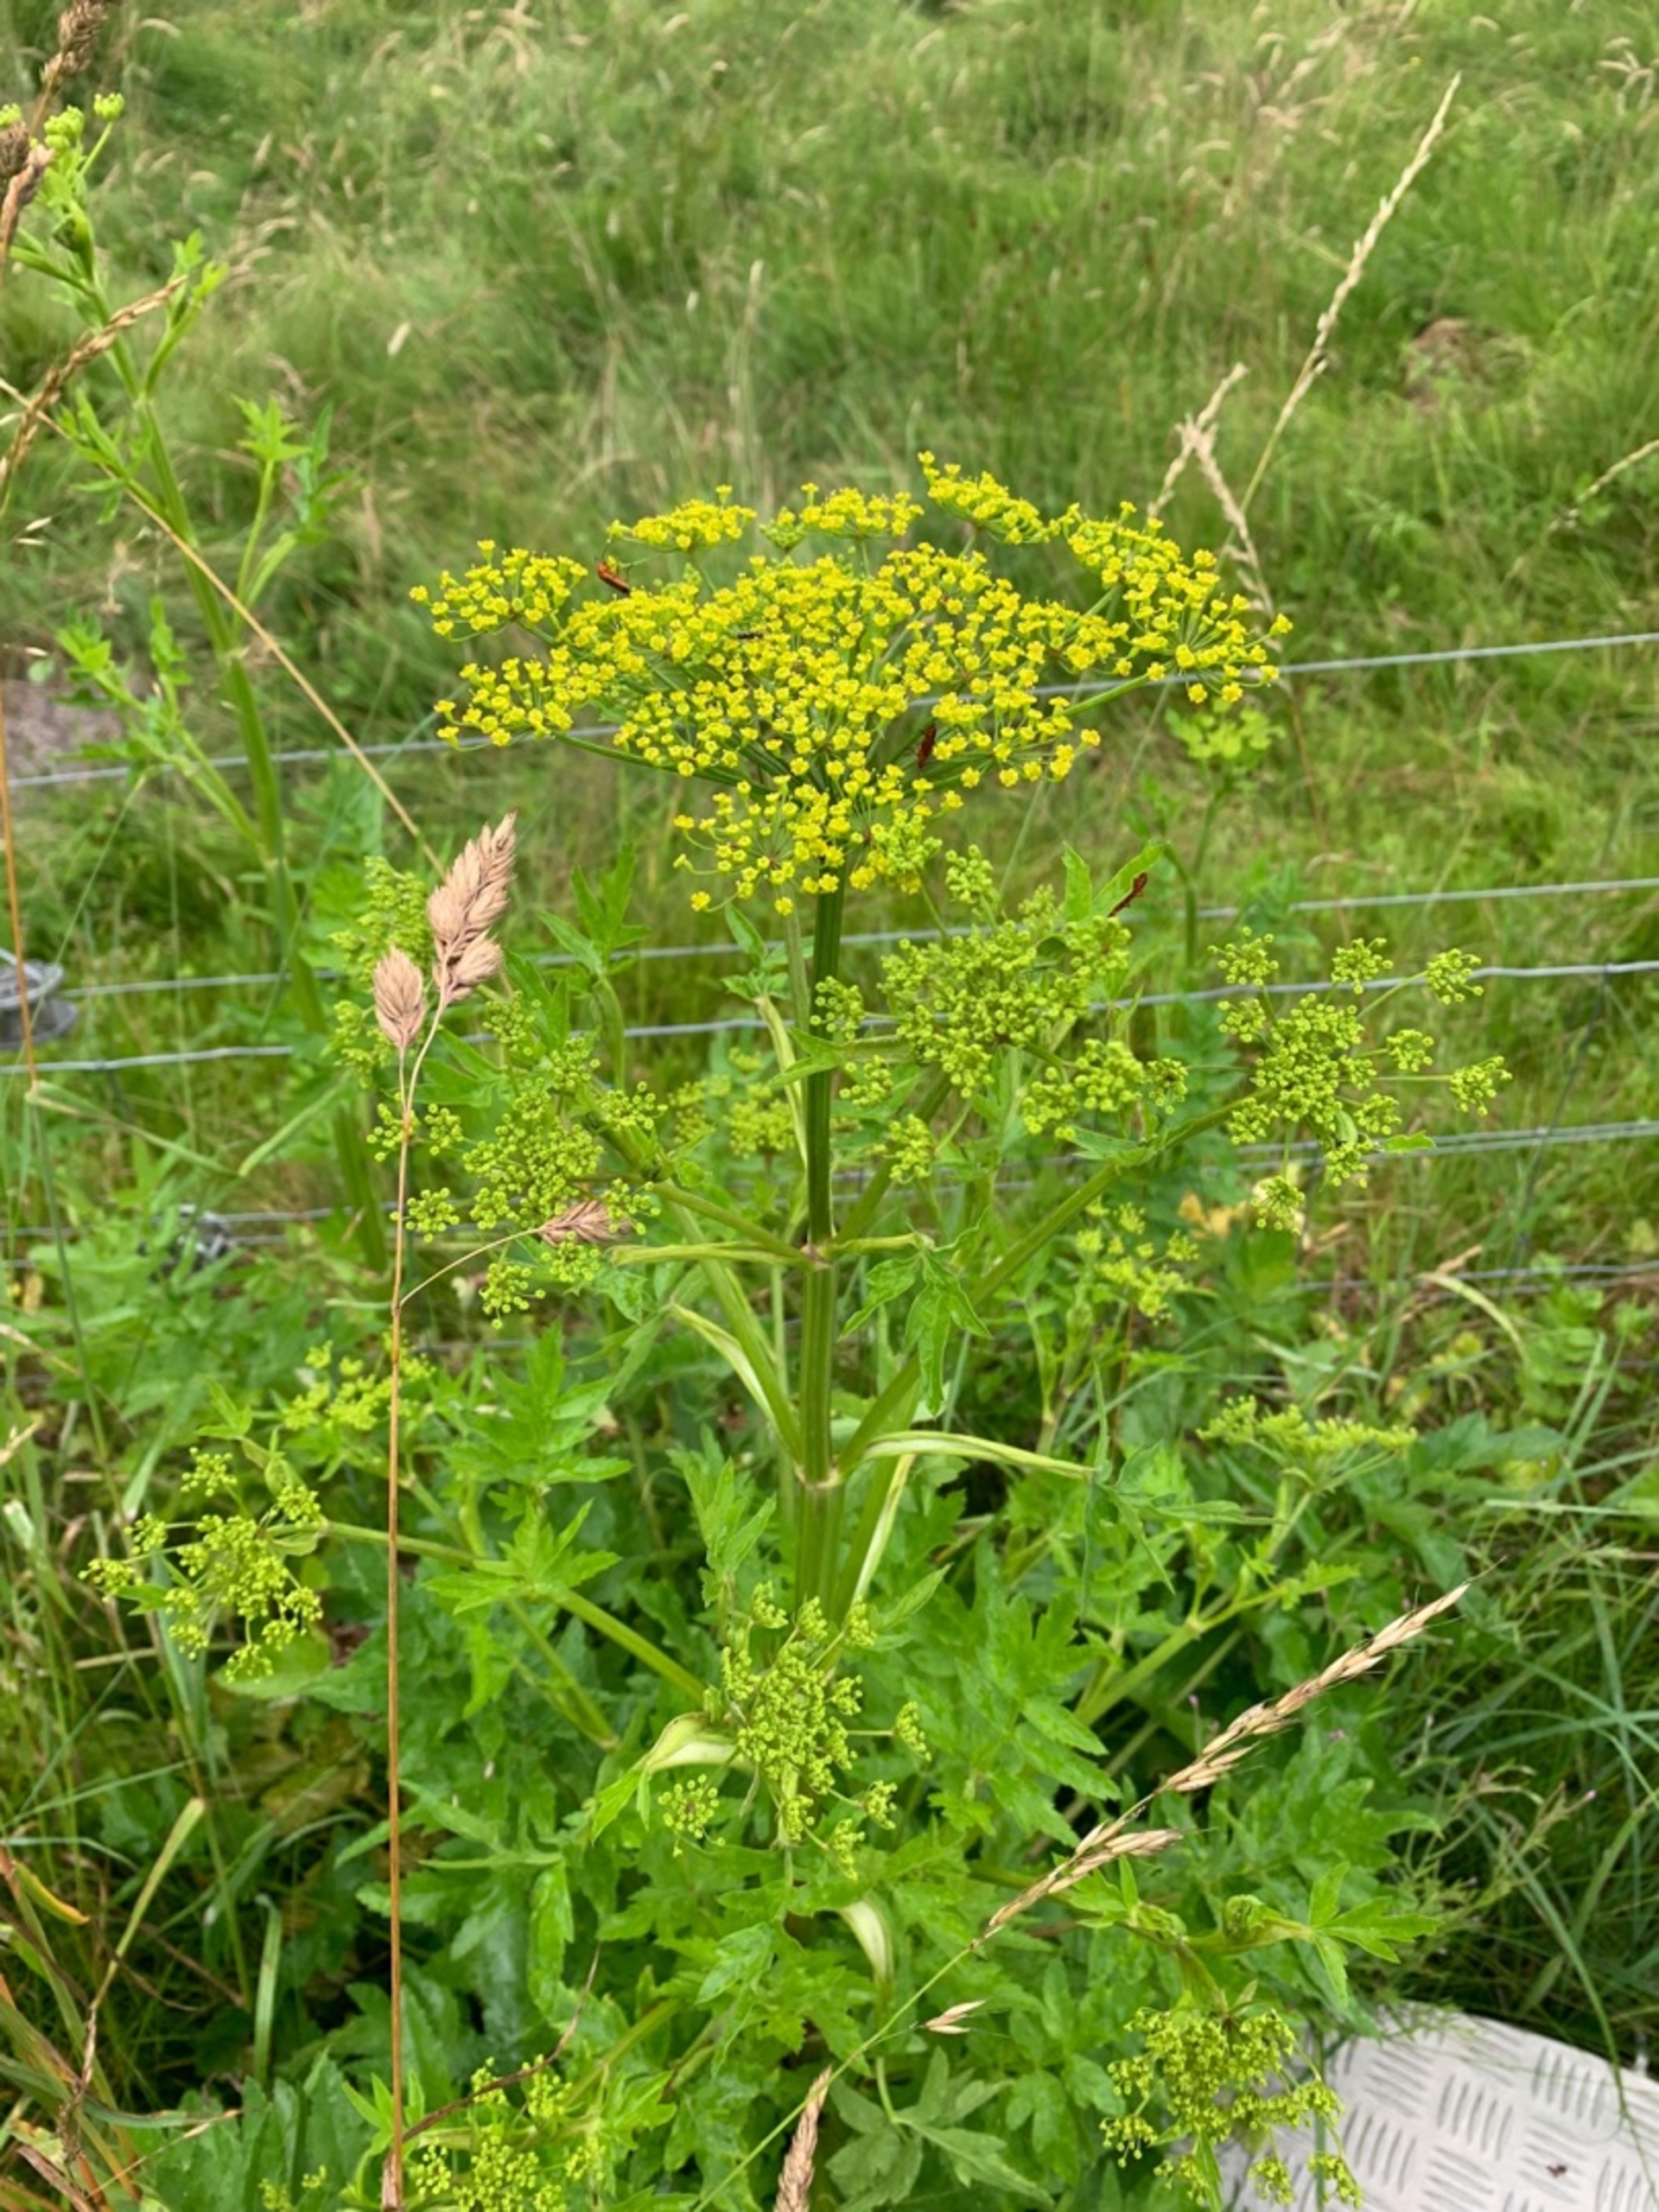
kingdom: Plantae
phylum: Tracheophyta
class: Magnoliopsida
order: Apiales
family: Apiaceae
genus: Pastinaca
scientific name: Pastinaca sativa
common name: Pastinak
